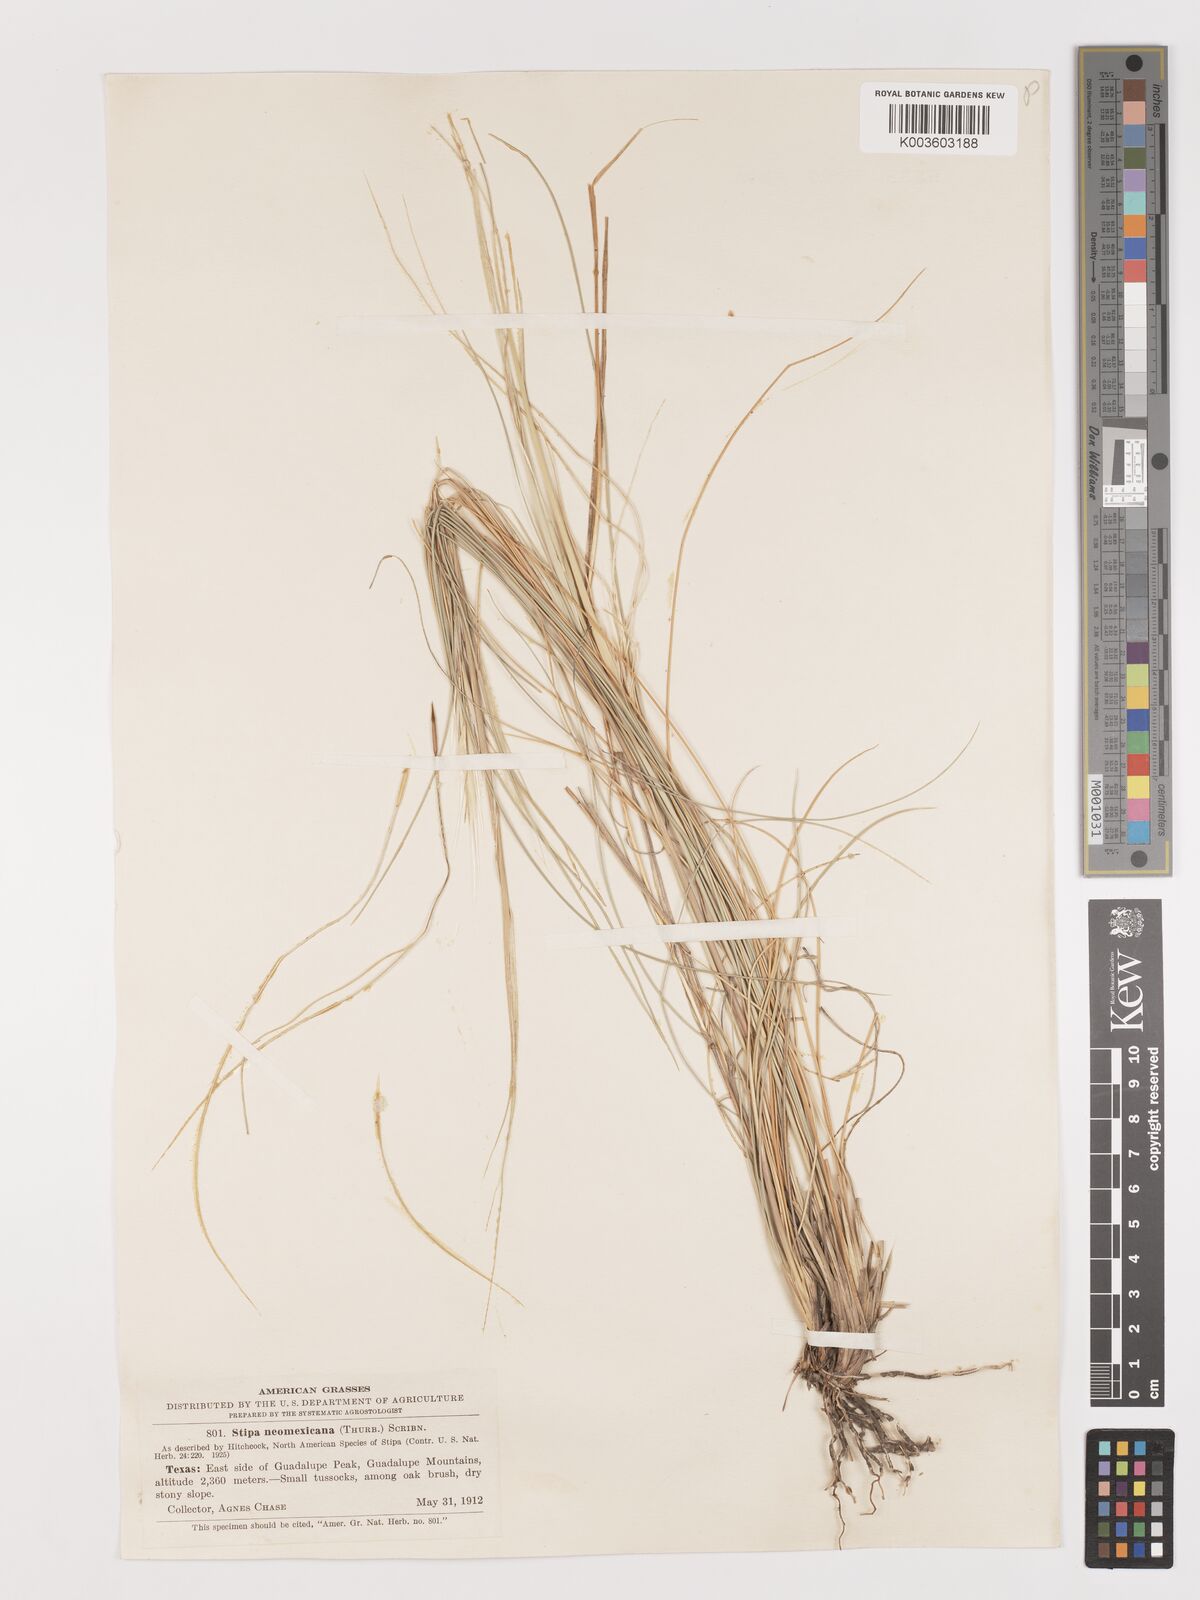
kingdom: Plantae
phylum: Tracheophyta
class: Liliopsida
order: Poales
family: Poaceae
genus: Hesperostipa
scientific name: Hesperostipa neomexicana
